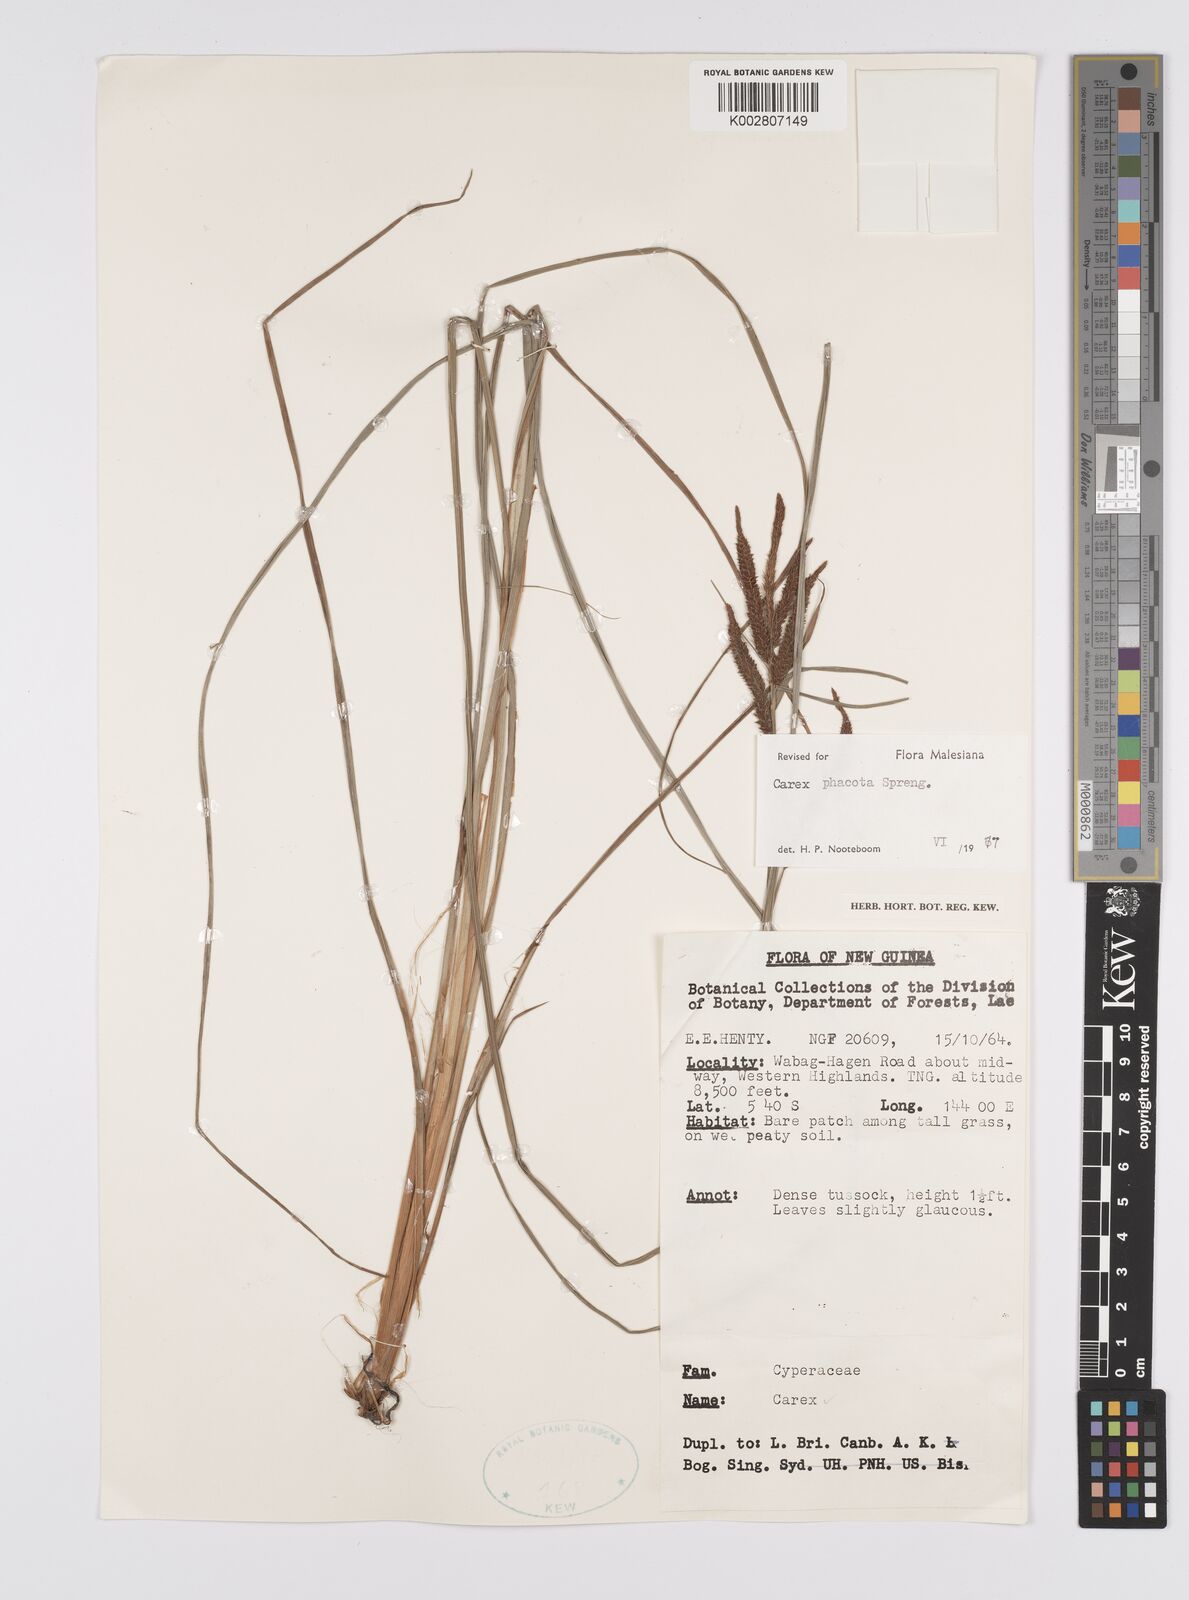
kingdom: Plantae
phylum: Tracheophyta
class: Liliopsida
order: Poales
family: Cyperaceae
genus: Carex
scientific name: Carex phacota
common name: Lakeshore sedge
